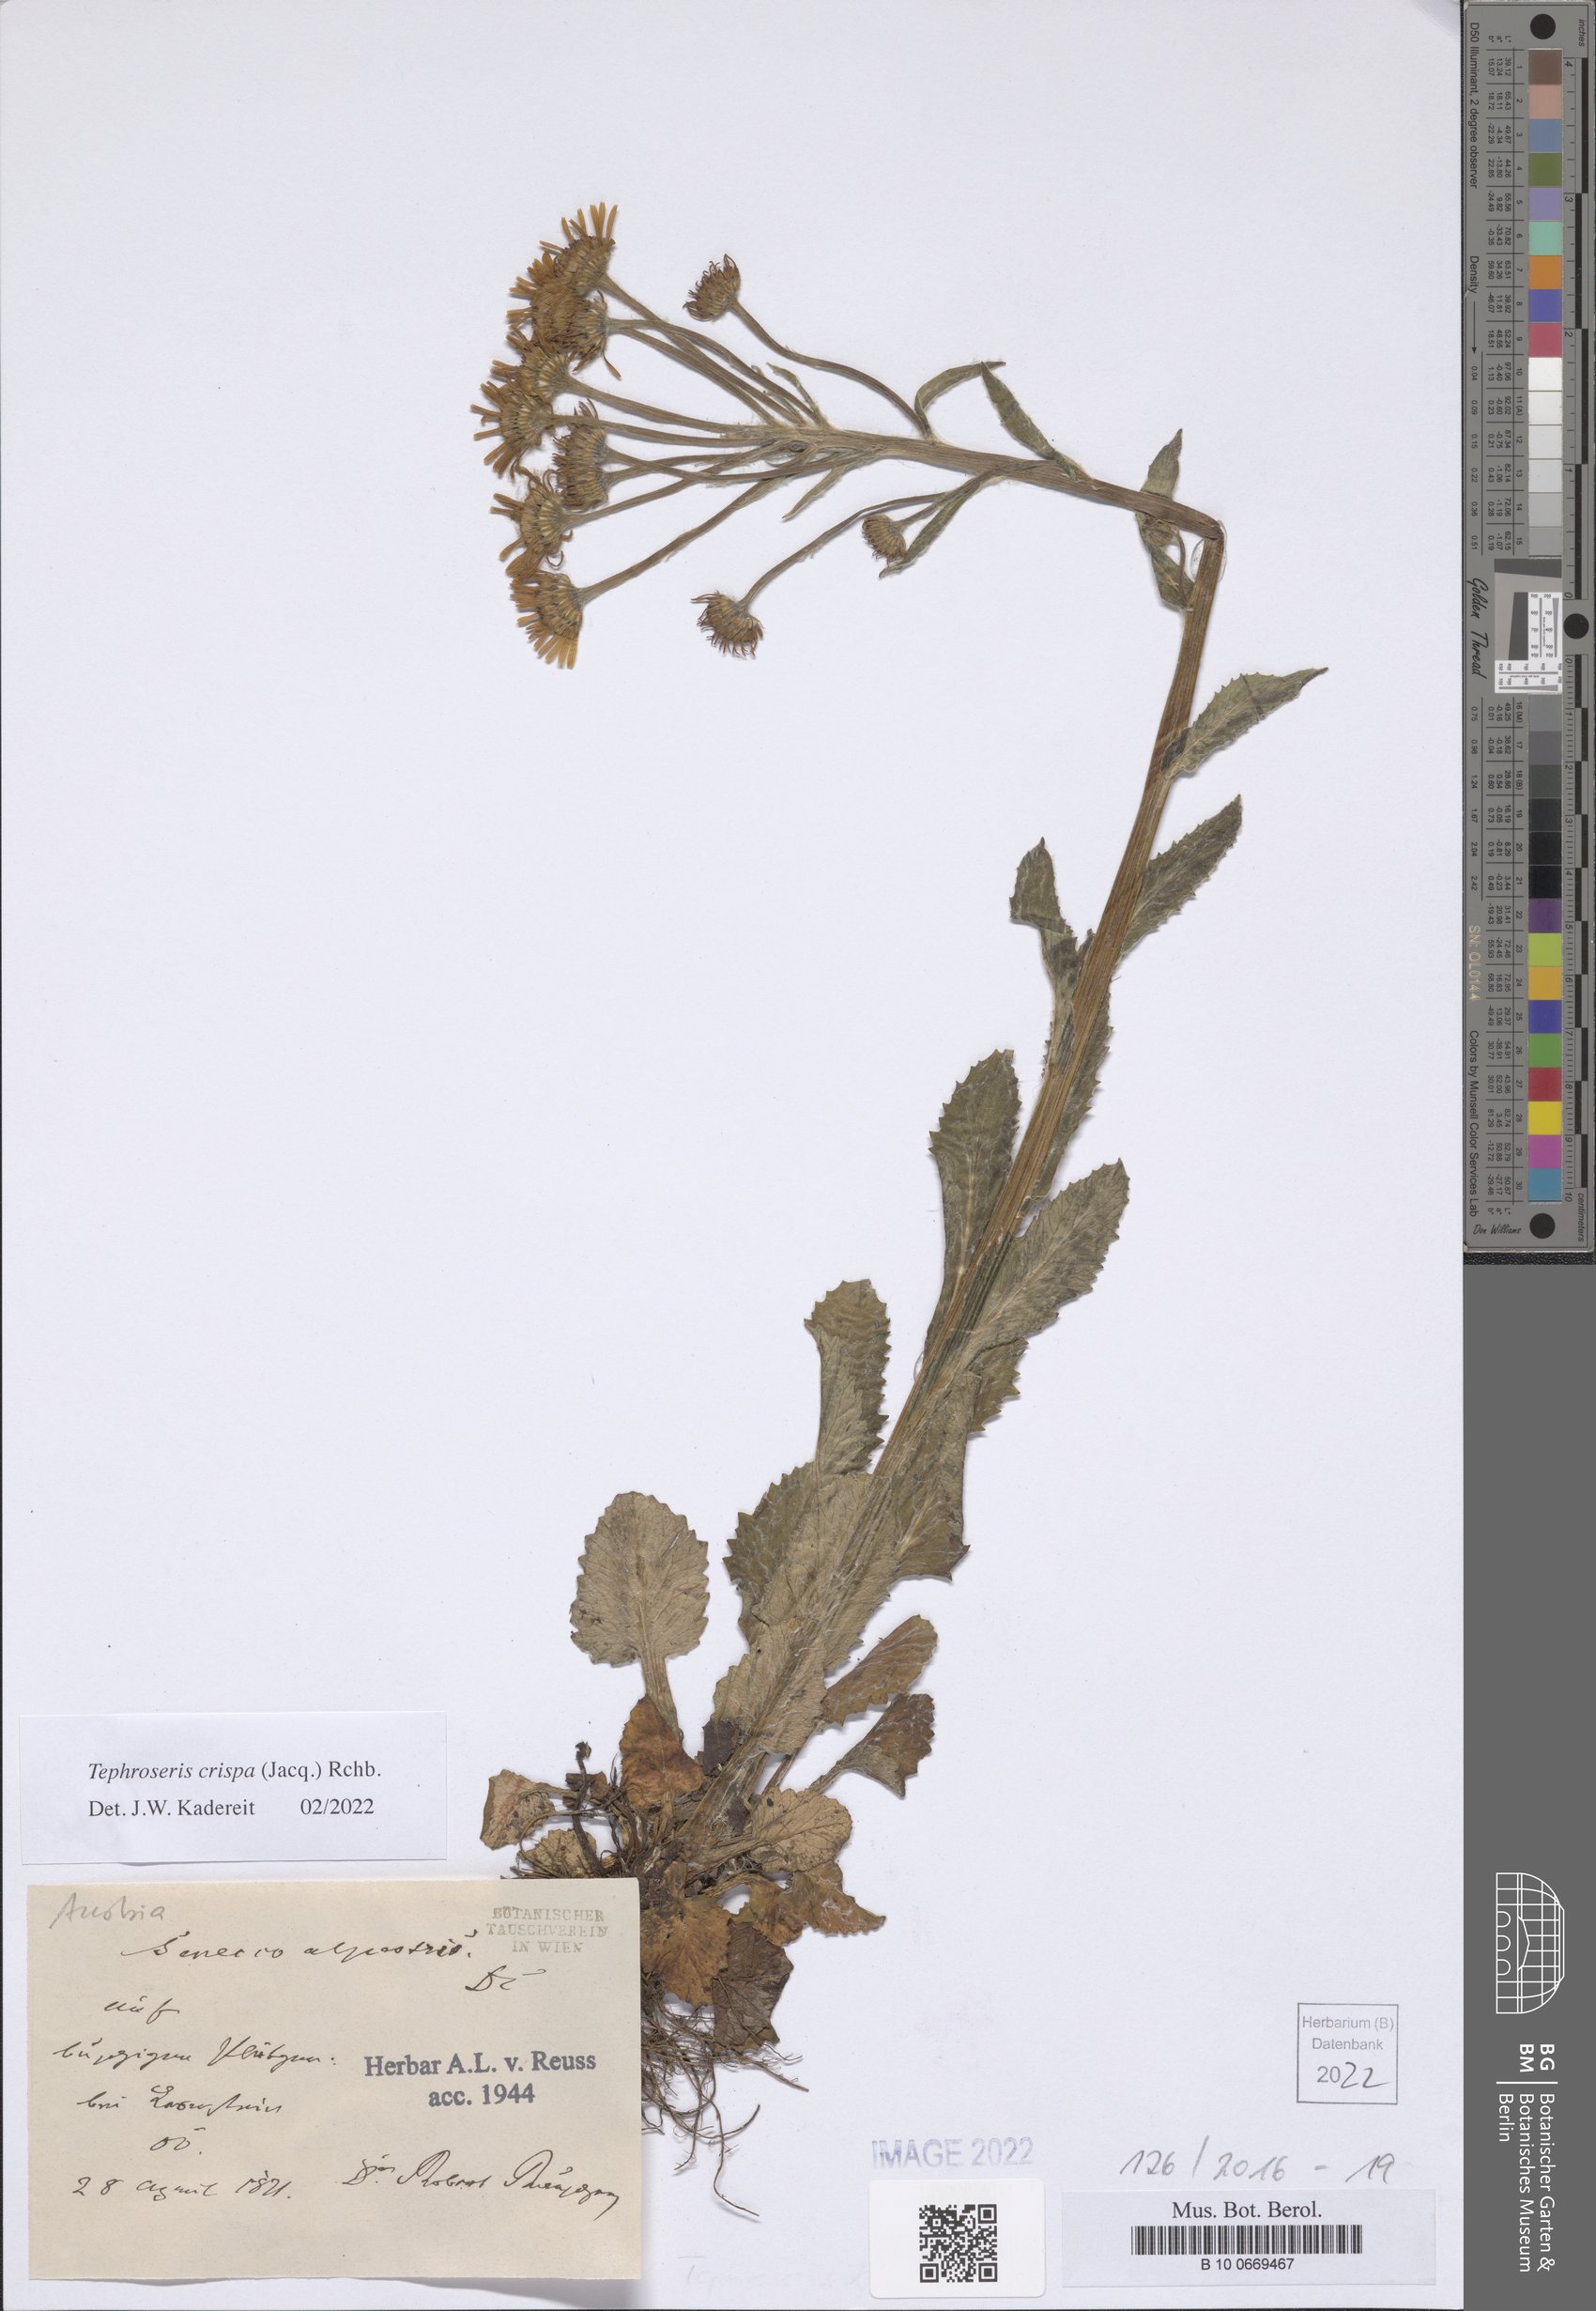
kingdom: Plantae
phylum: Tracheophyta
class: Magnoliopsida
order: Asterales
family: Asteraceae
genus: Tephroseris
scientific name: Tephroseris crispa
